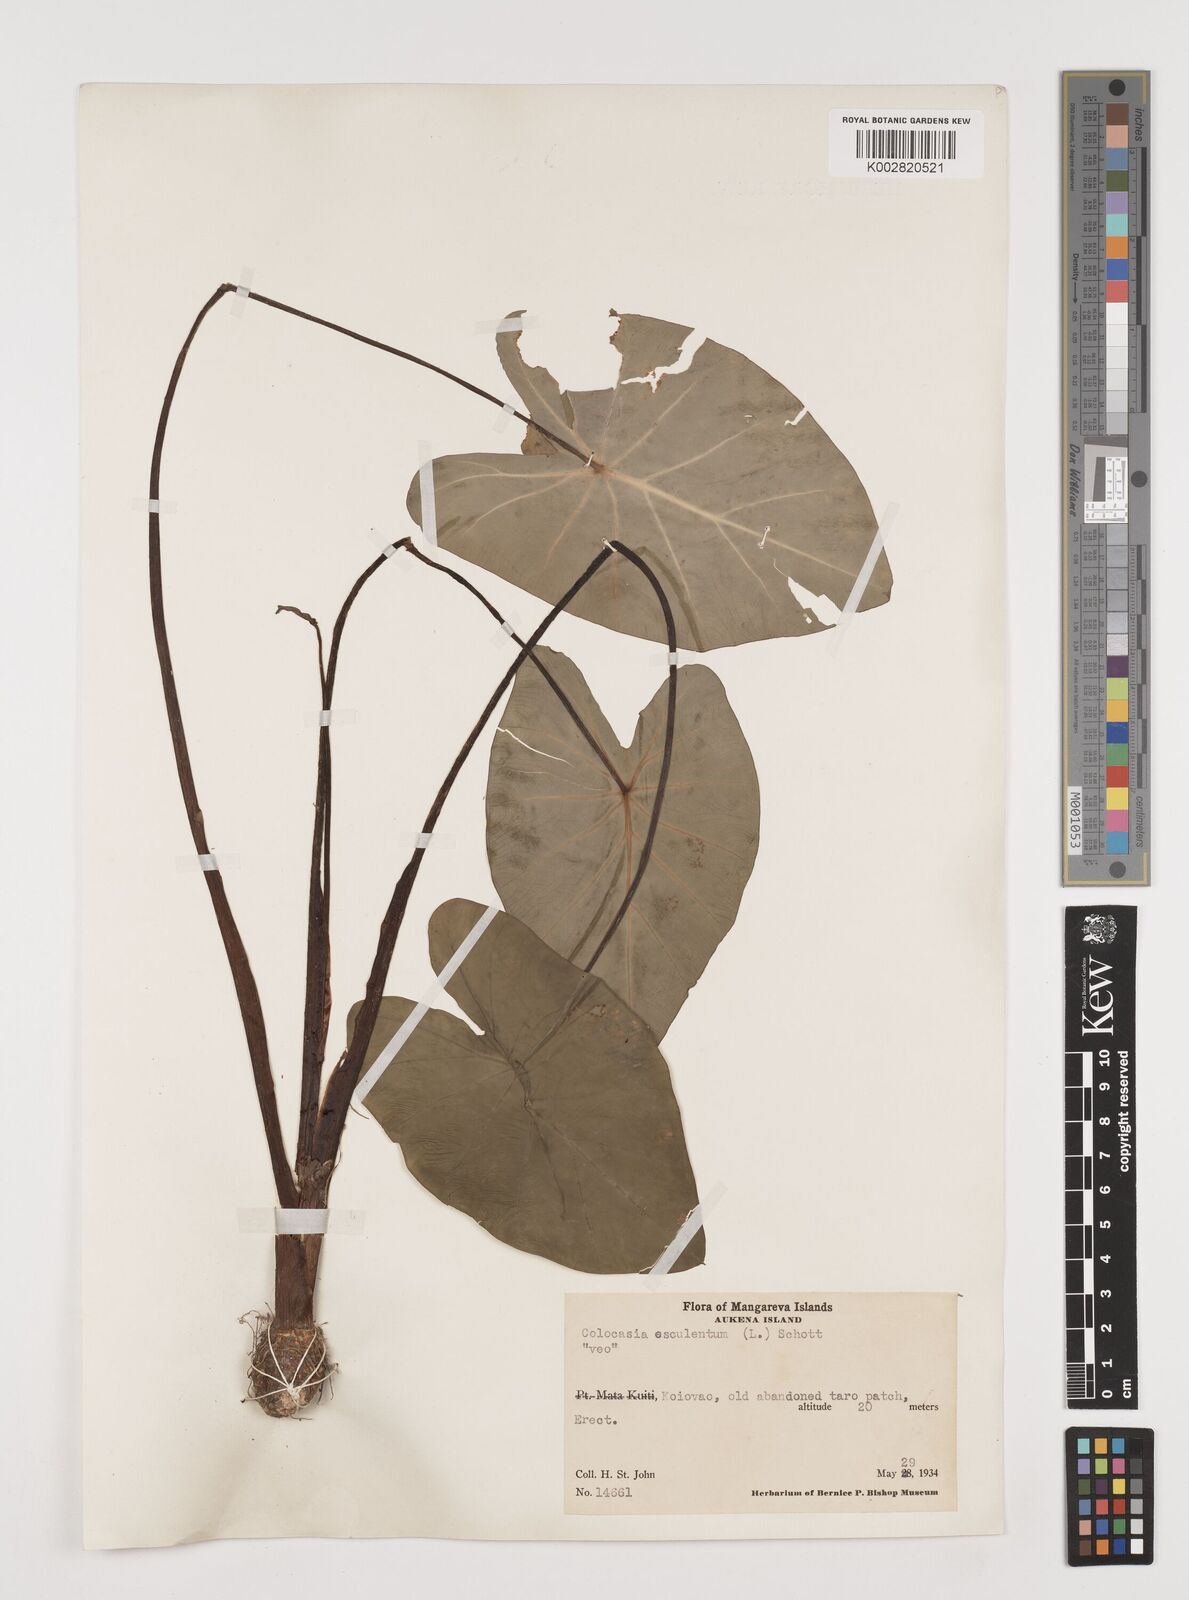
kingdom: Plantae
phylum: Tracheophyta
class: Liliopsida
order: Alismatales
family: Araceae
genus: Colocasia
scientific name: Colocasia esculenta
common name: Taro
